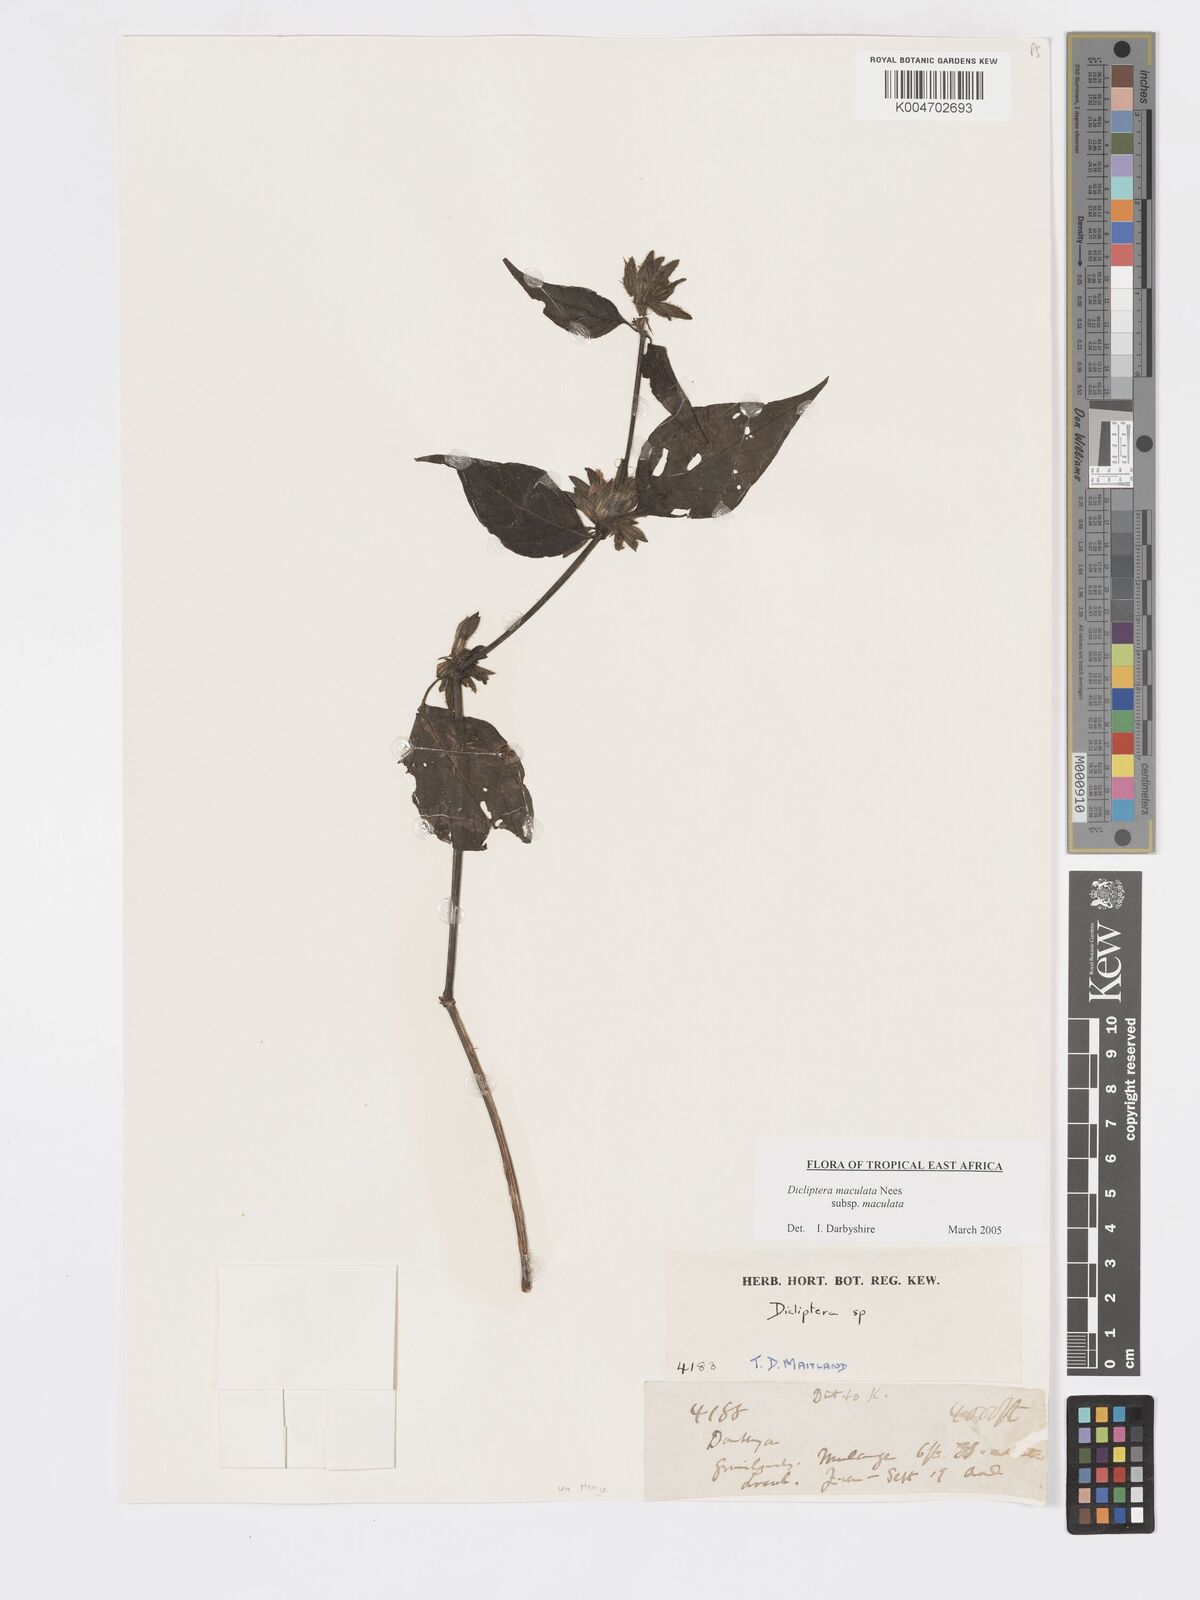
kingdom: Plantae
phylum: Tracheophyta
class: Magnoliopsida
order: Lamiales
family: Acanthaceae
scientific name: Acanthaceae
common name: Acanthaceae
